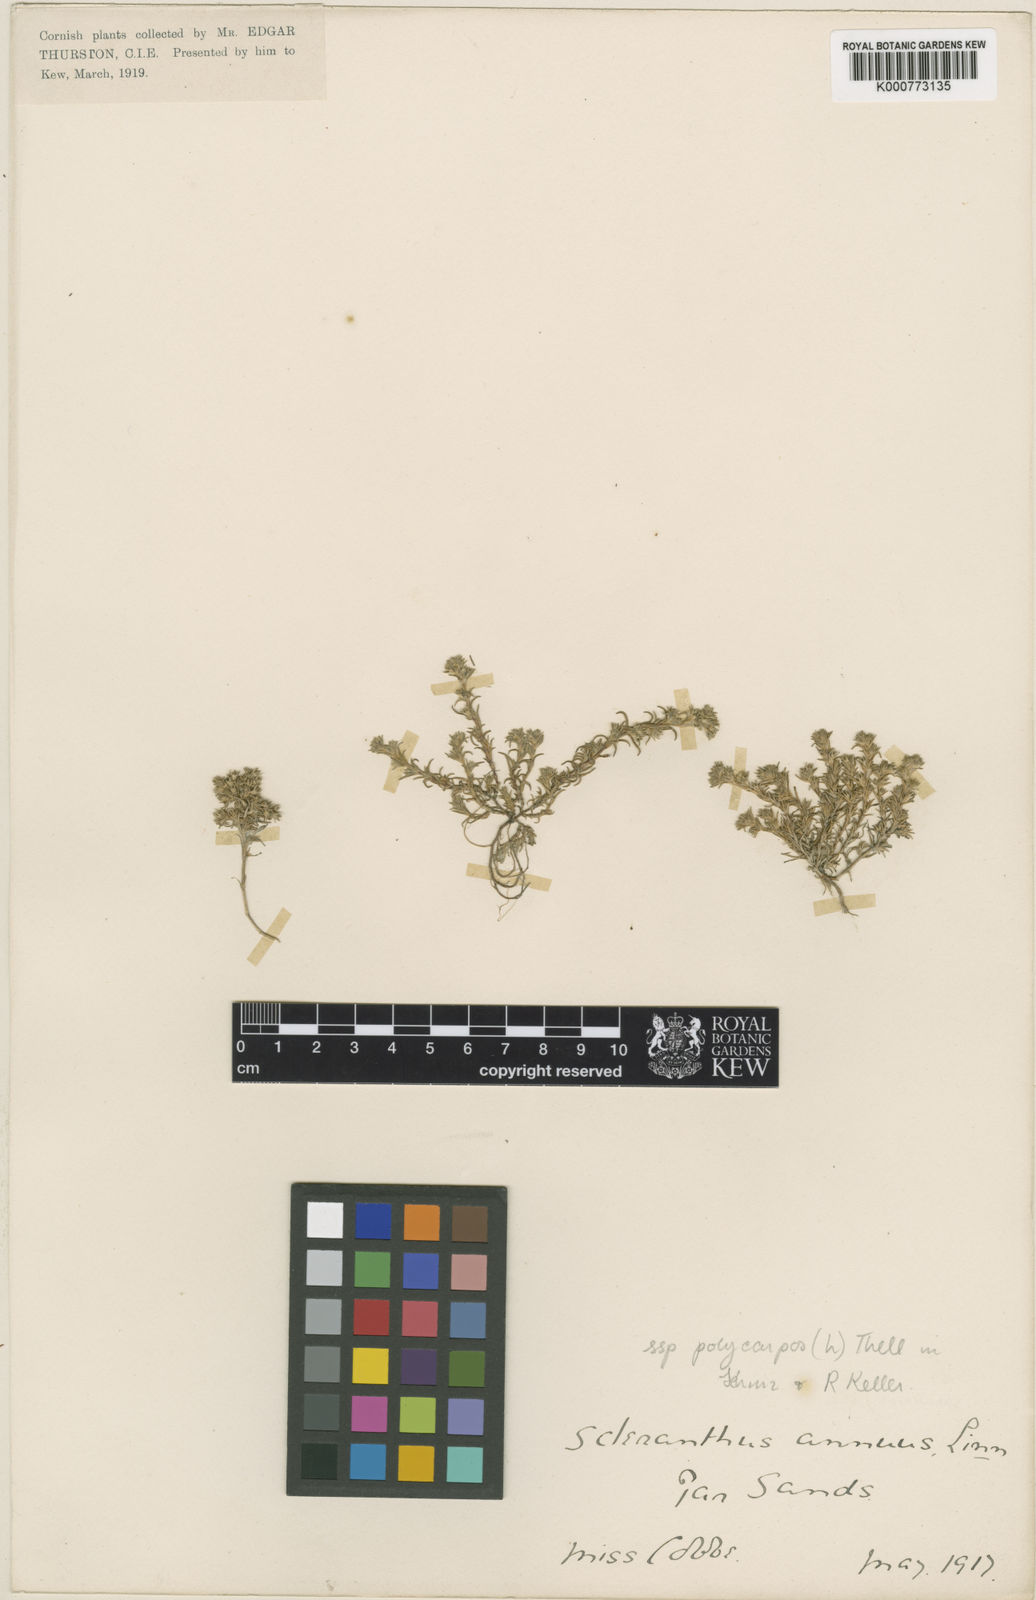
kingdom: Plantae
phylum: Tracheophyta
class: Magnoliopsida
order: Caryophyllales
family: Caryophyllaceae
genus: Scleranthus
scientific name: Scleranthus annuus
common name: Annual knawel
